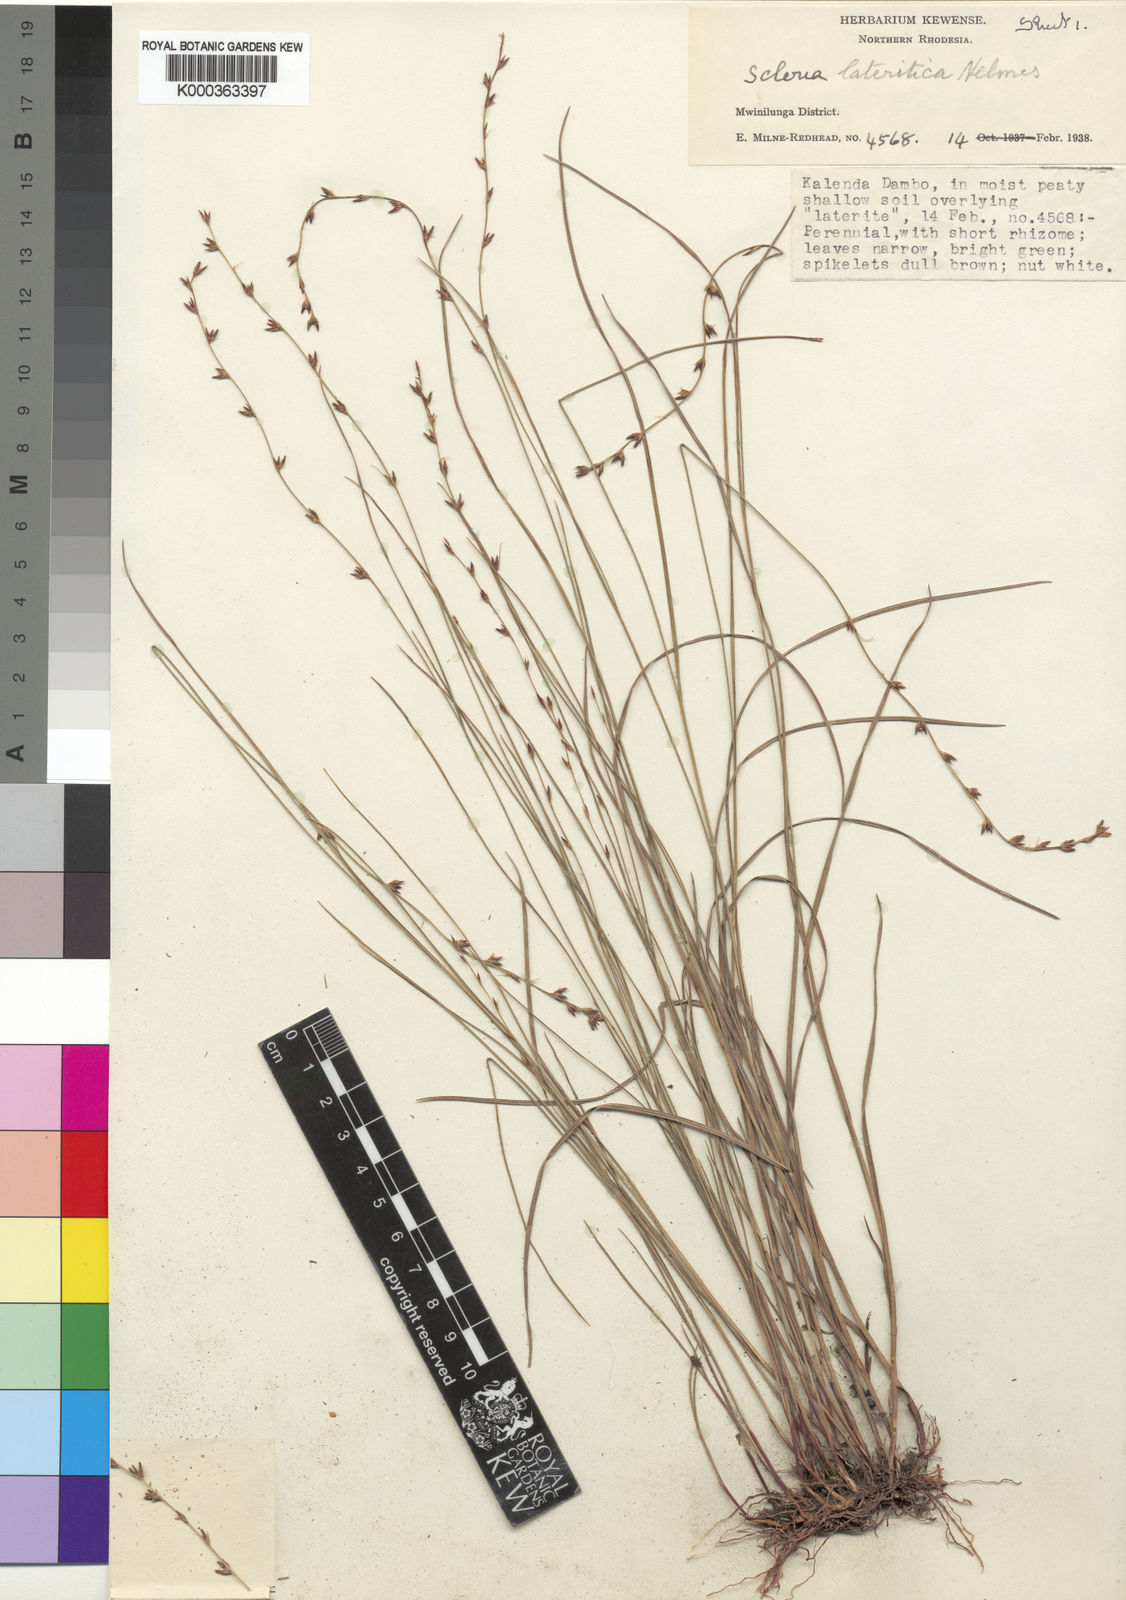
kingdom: Plantae
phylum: Tracheophyta
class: Liliopsida
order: Poales
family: Cyperaceae
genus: Scleria
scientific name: Scleria flexuosa
